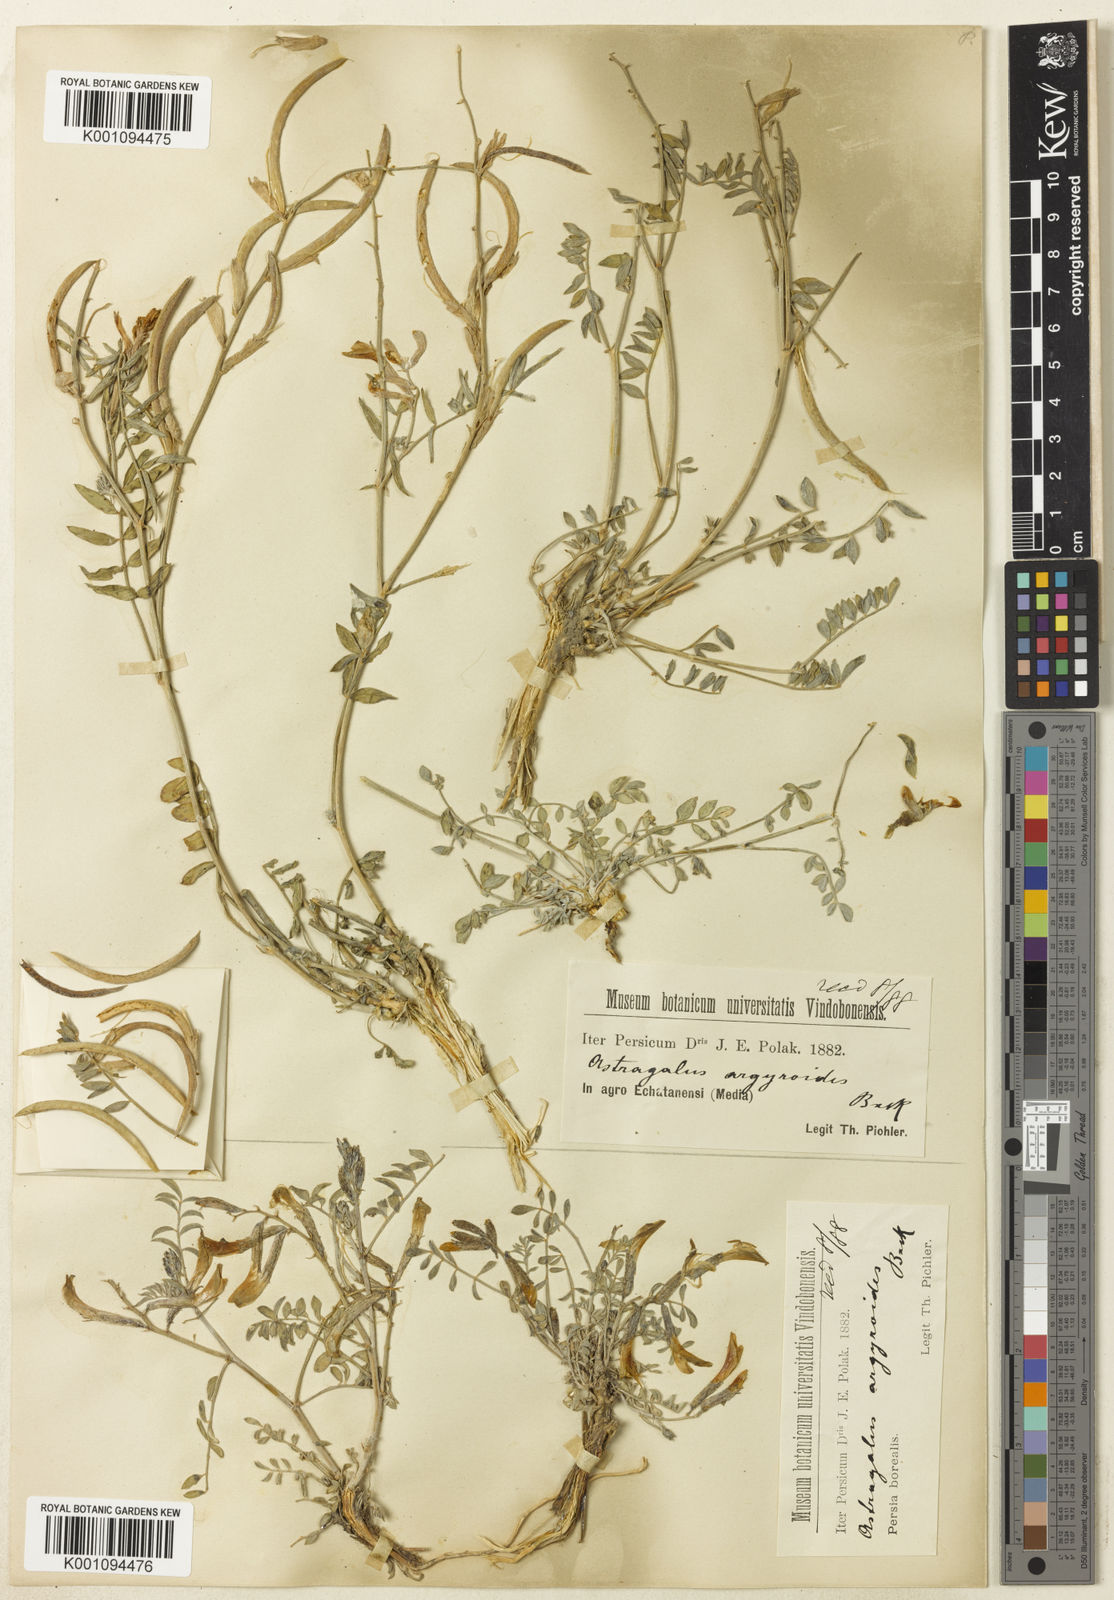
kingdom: Plantae
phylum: Tracheophyta
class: Magnoliopsida
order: Fabales
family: Fabaceae
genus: Astragalus
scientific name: Astragalus
